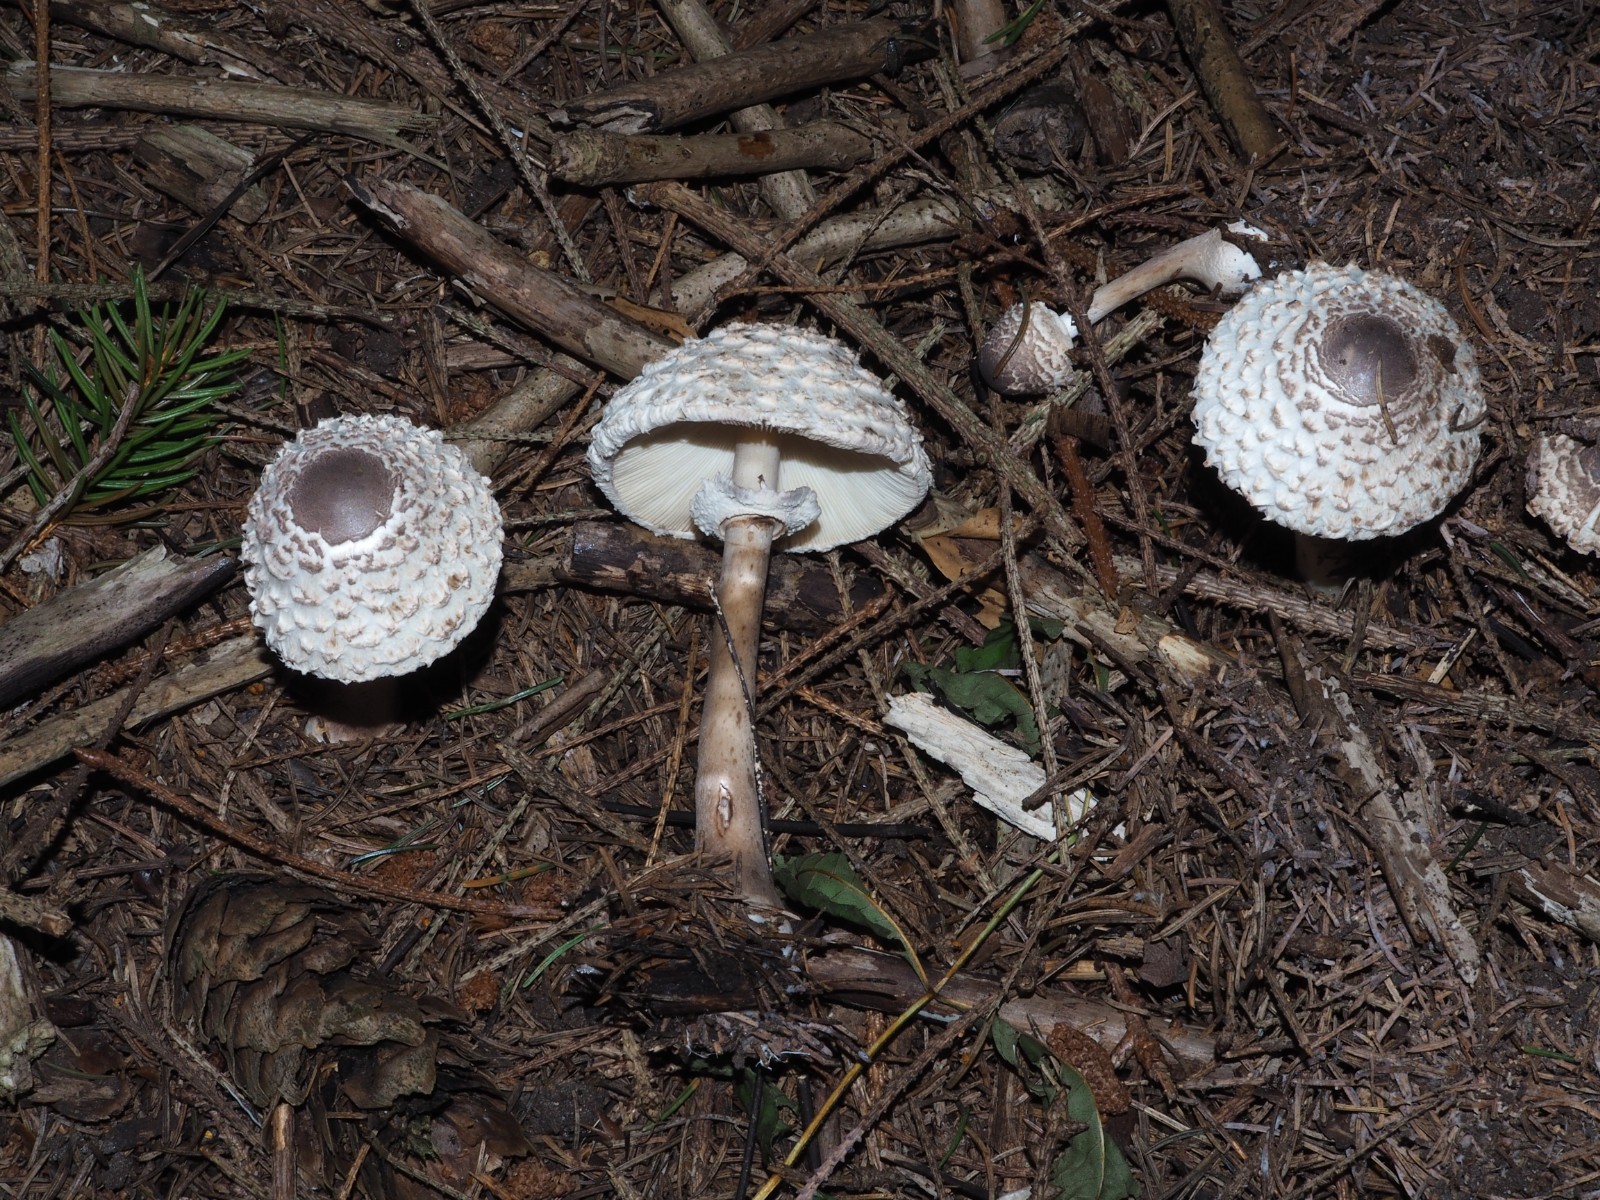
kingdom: Fungi
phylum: Basidiomycota
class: Agaricomycetes
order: Agaricales
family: Agaricaceae
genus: Leucoagaricus
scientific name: Leucoagaricus nympharum
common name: gran-silkehat
